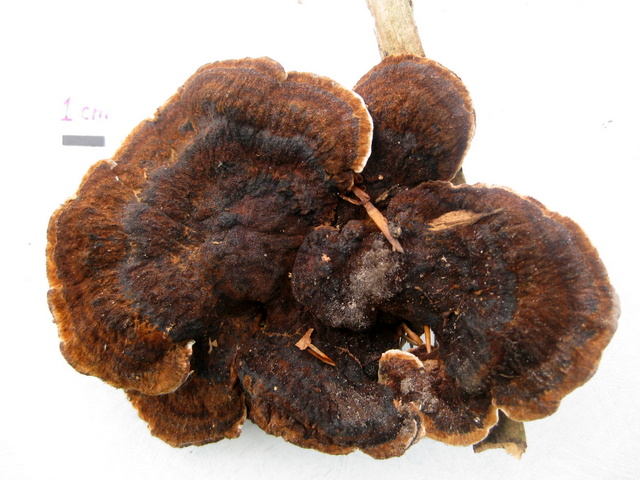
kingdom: Fungi
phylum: Basidiomycota
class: Agaricomycetes
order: Polyporales
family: Ischnodermataceae
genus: Ischnoderma
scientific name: Ischnoderma benzoinum
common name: gran-tjæreporesvamp
